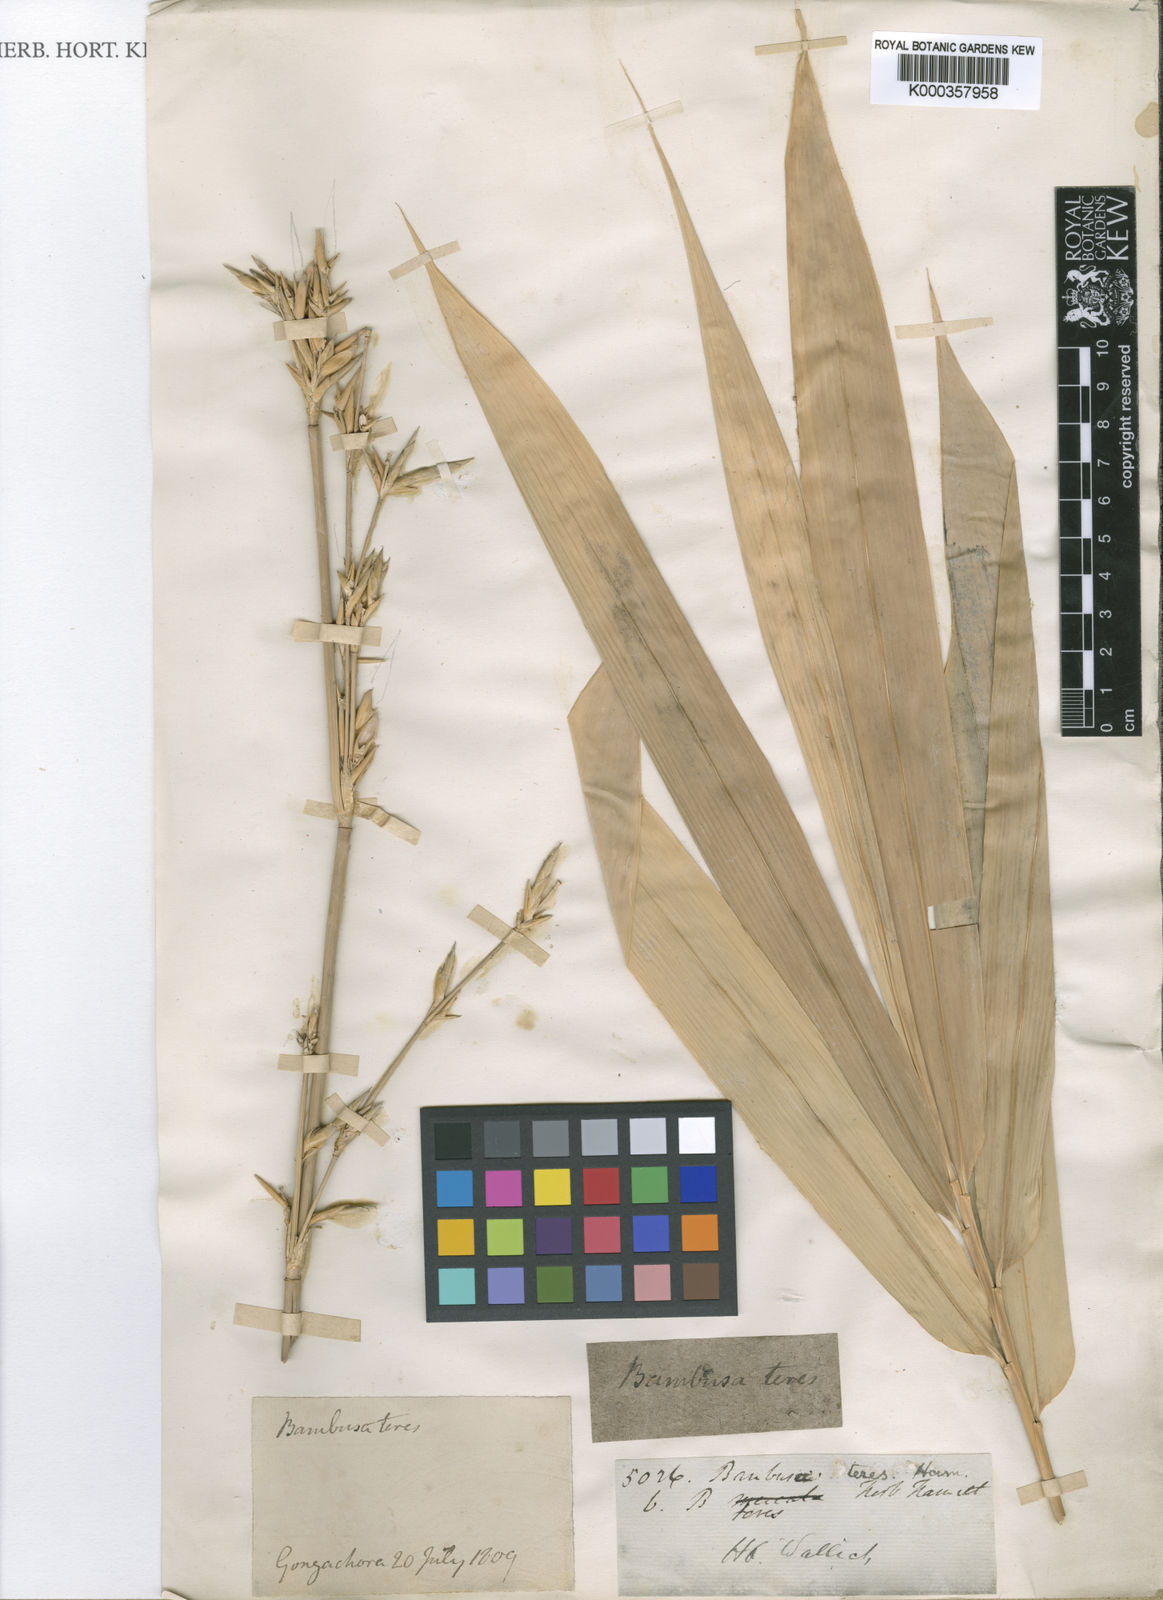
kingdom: Plantae
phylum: Tracheophyta
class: Liliopsida
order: Poales
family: Poaceae
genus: Bambusa
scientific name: Bambusa
